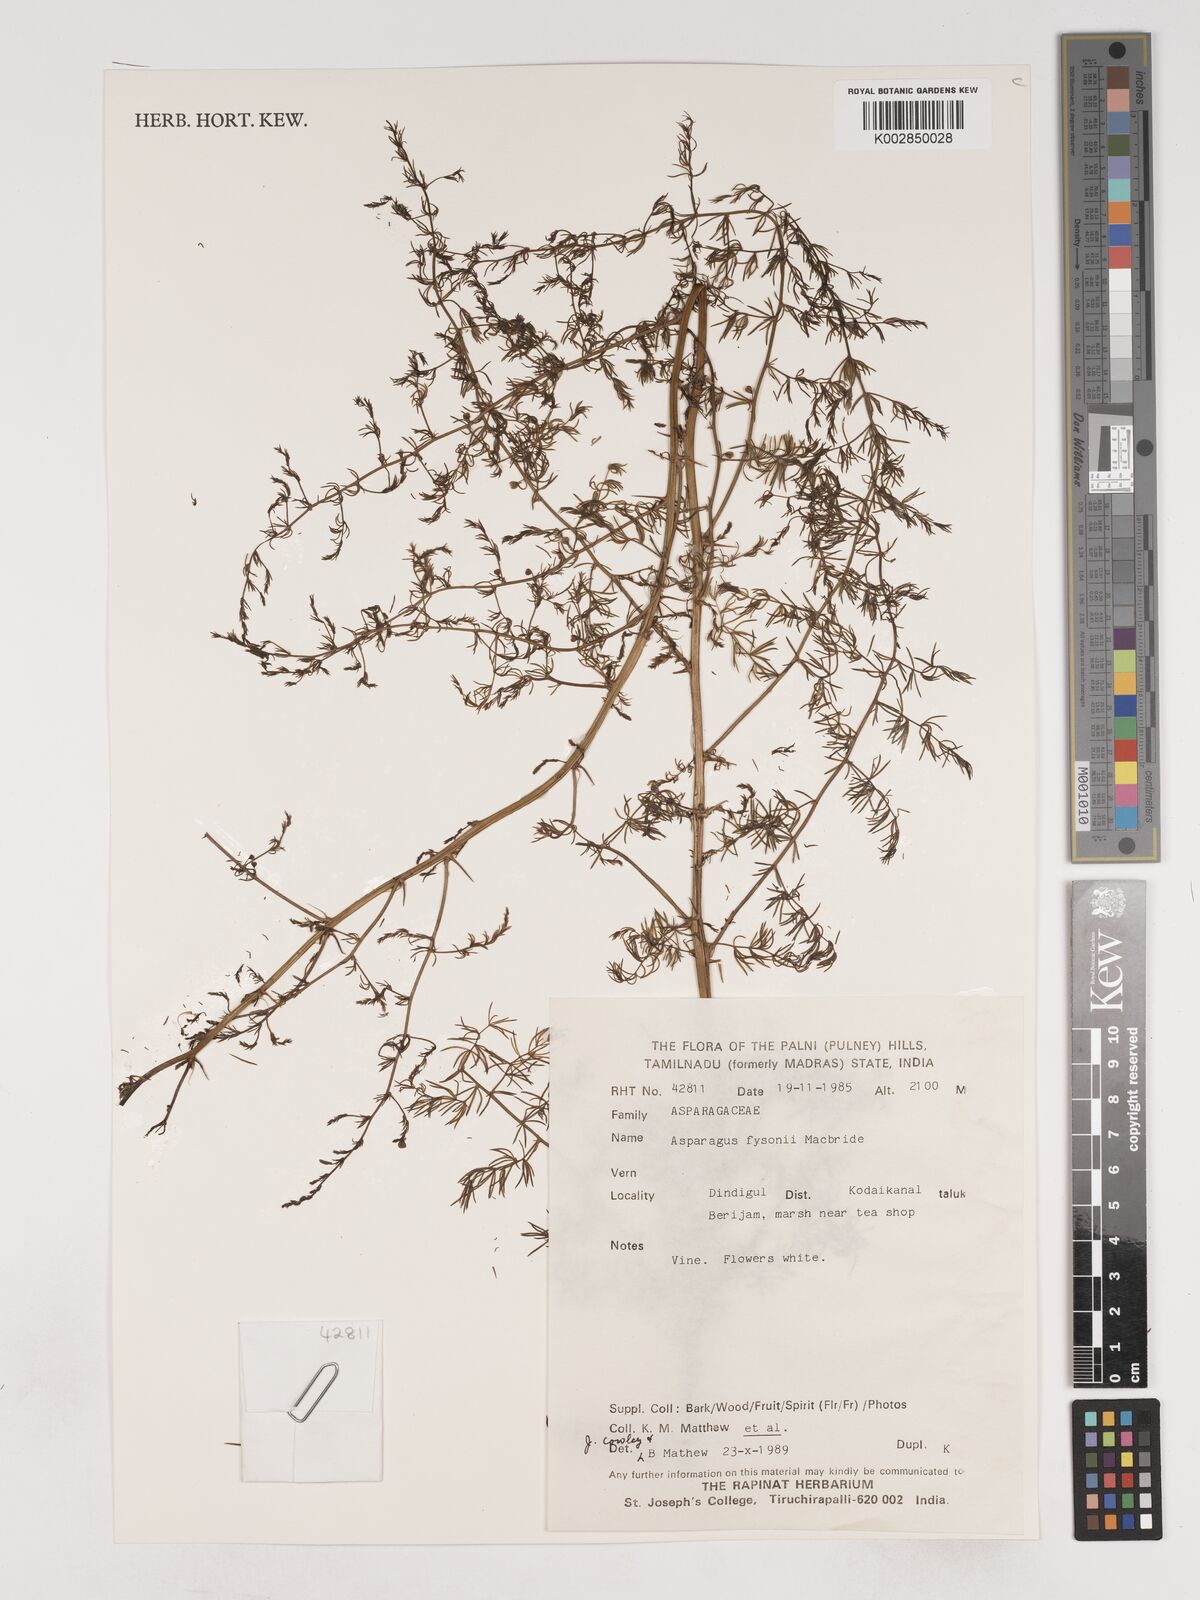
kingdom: Plantae
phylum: Tracheophyta
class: Liliopsida
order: Asparagales
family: Asparagaceae
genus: Asparagus
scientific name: Asparagus fysonii
